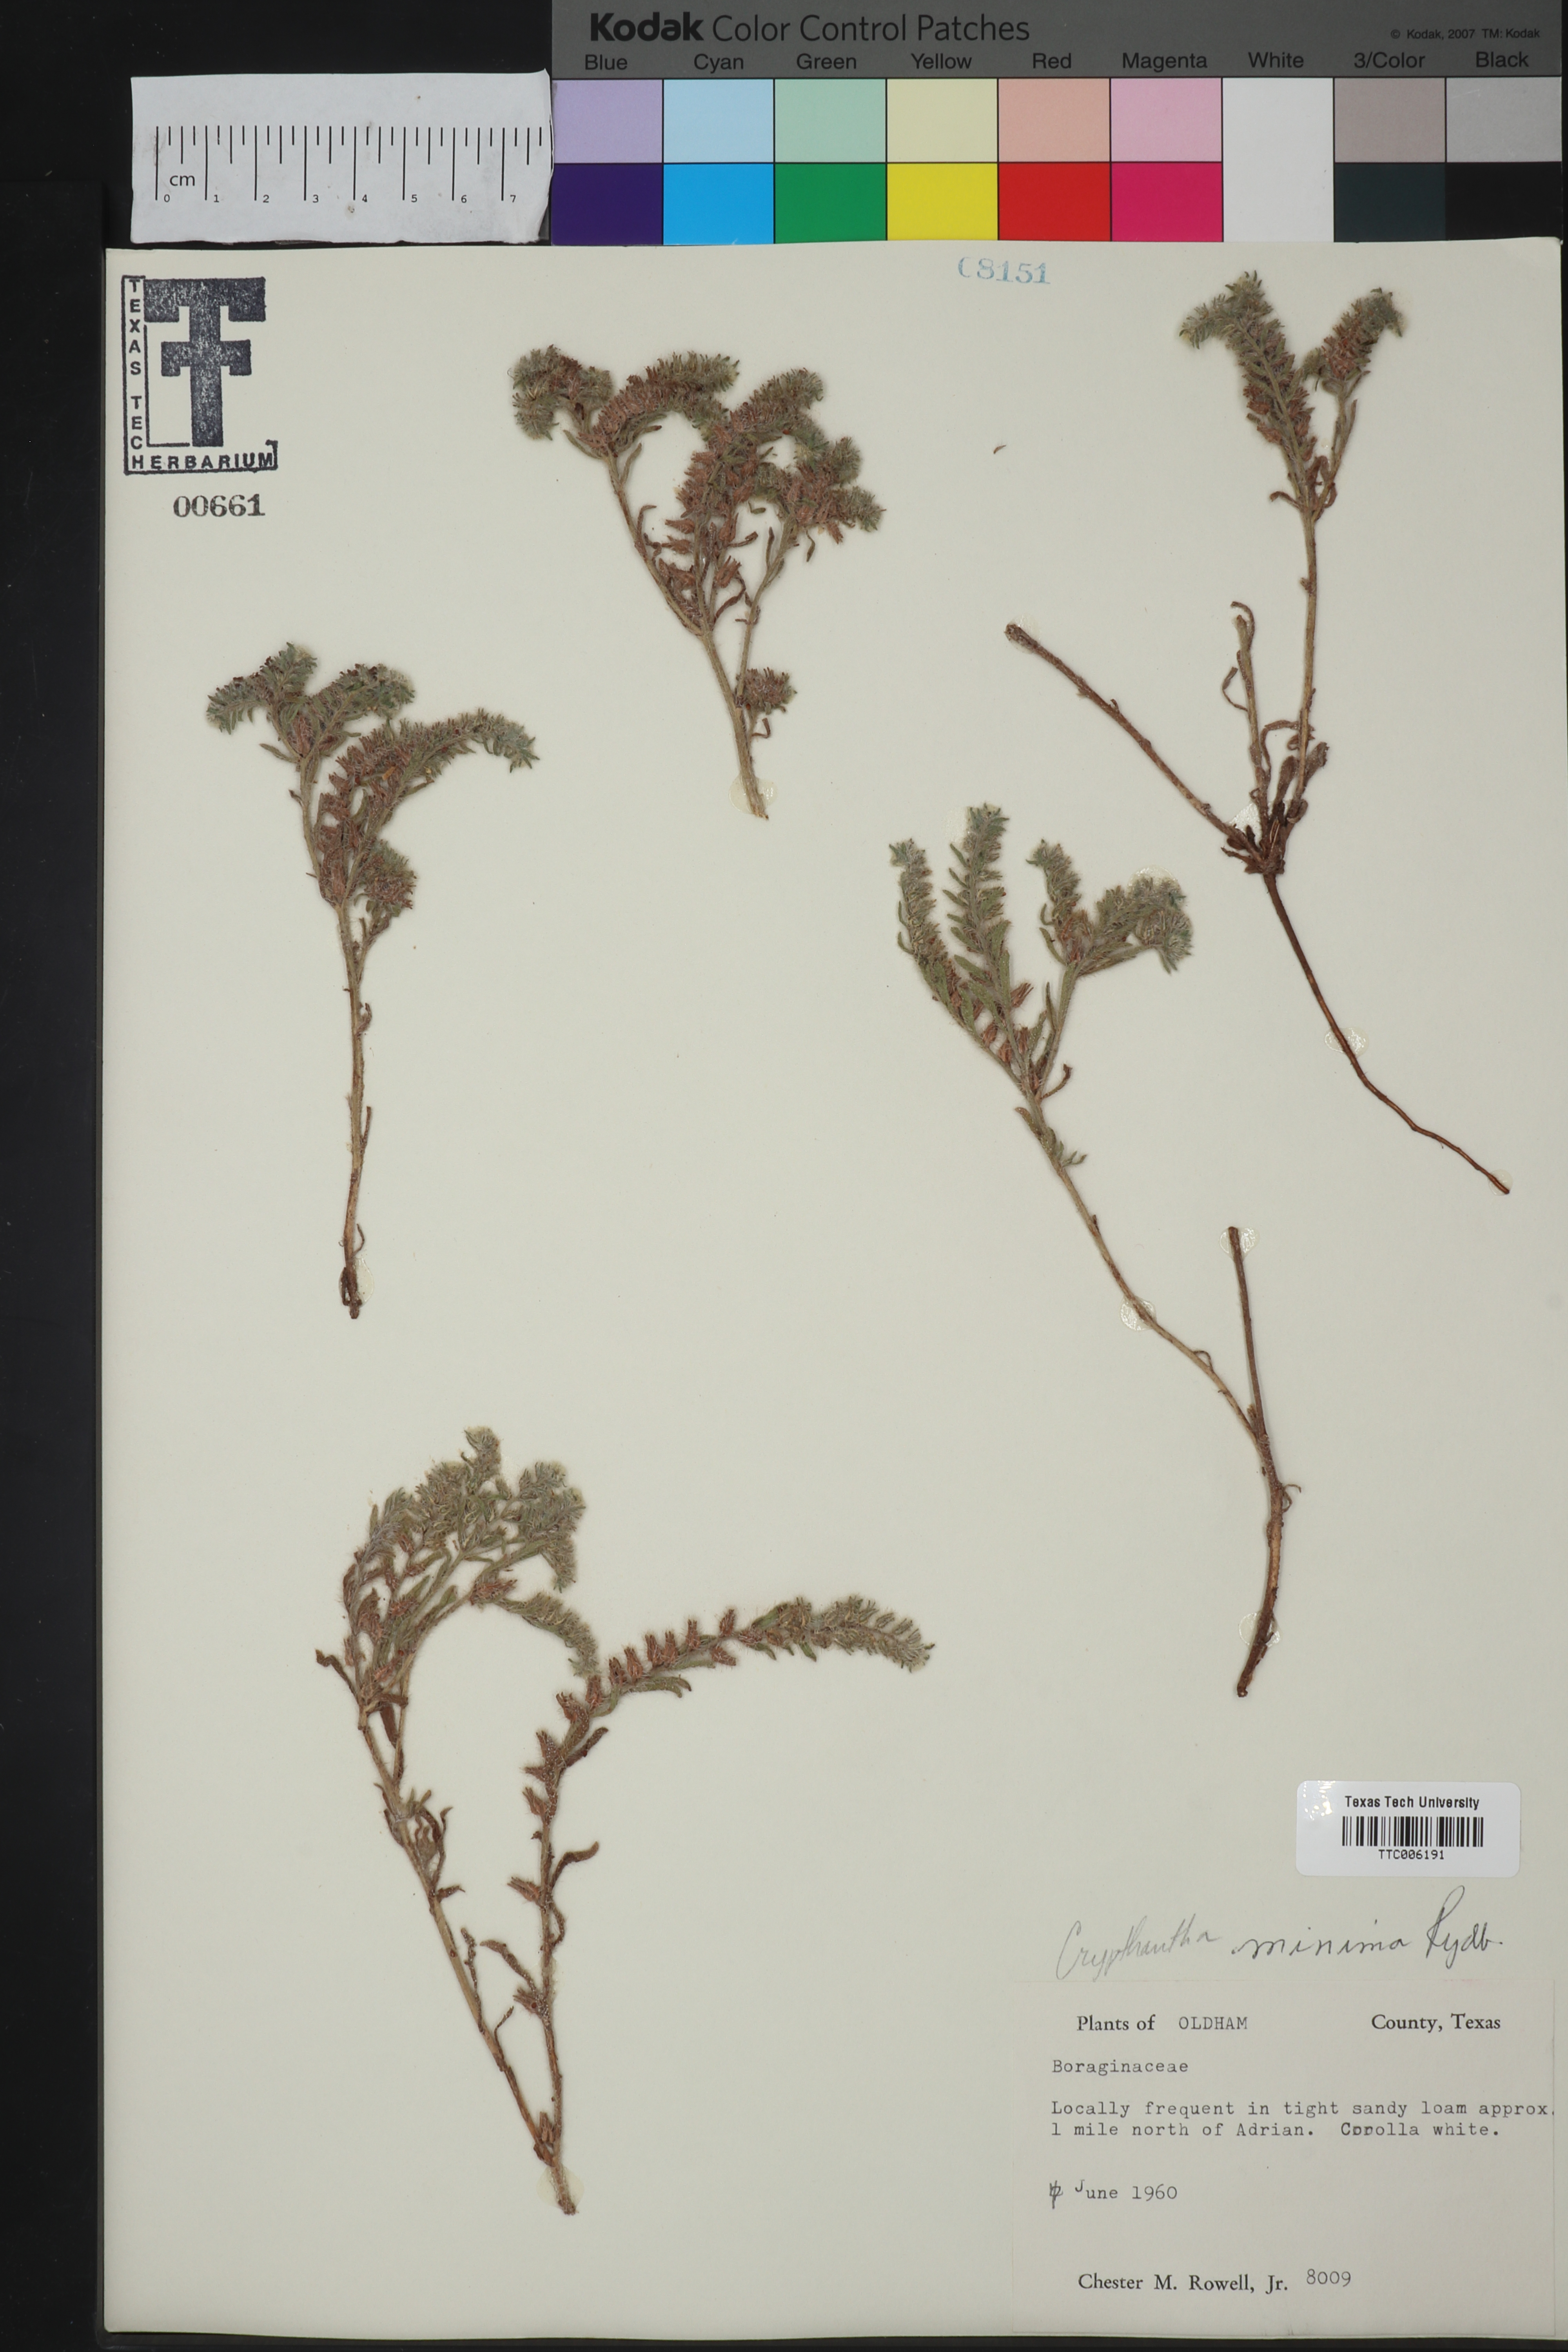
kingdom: Plantae
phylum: Tracheophyta
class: Magnoliopsida
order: Boraginales
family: Boraginaceae
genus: Cryptantha
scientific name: Cryptantha minima
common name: Little cat's-eye
